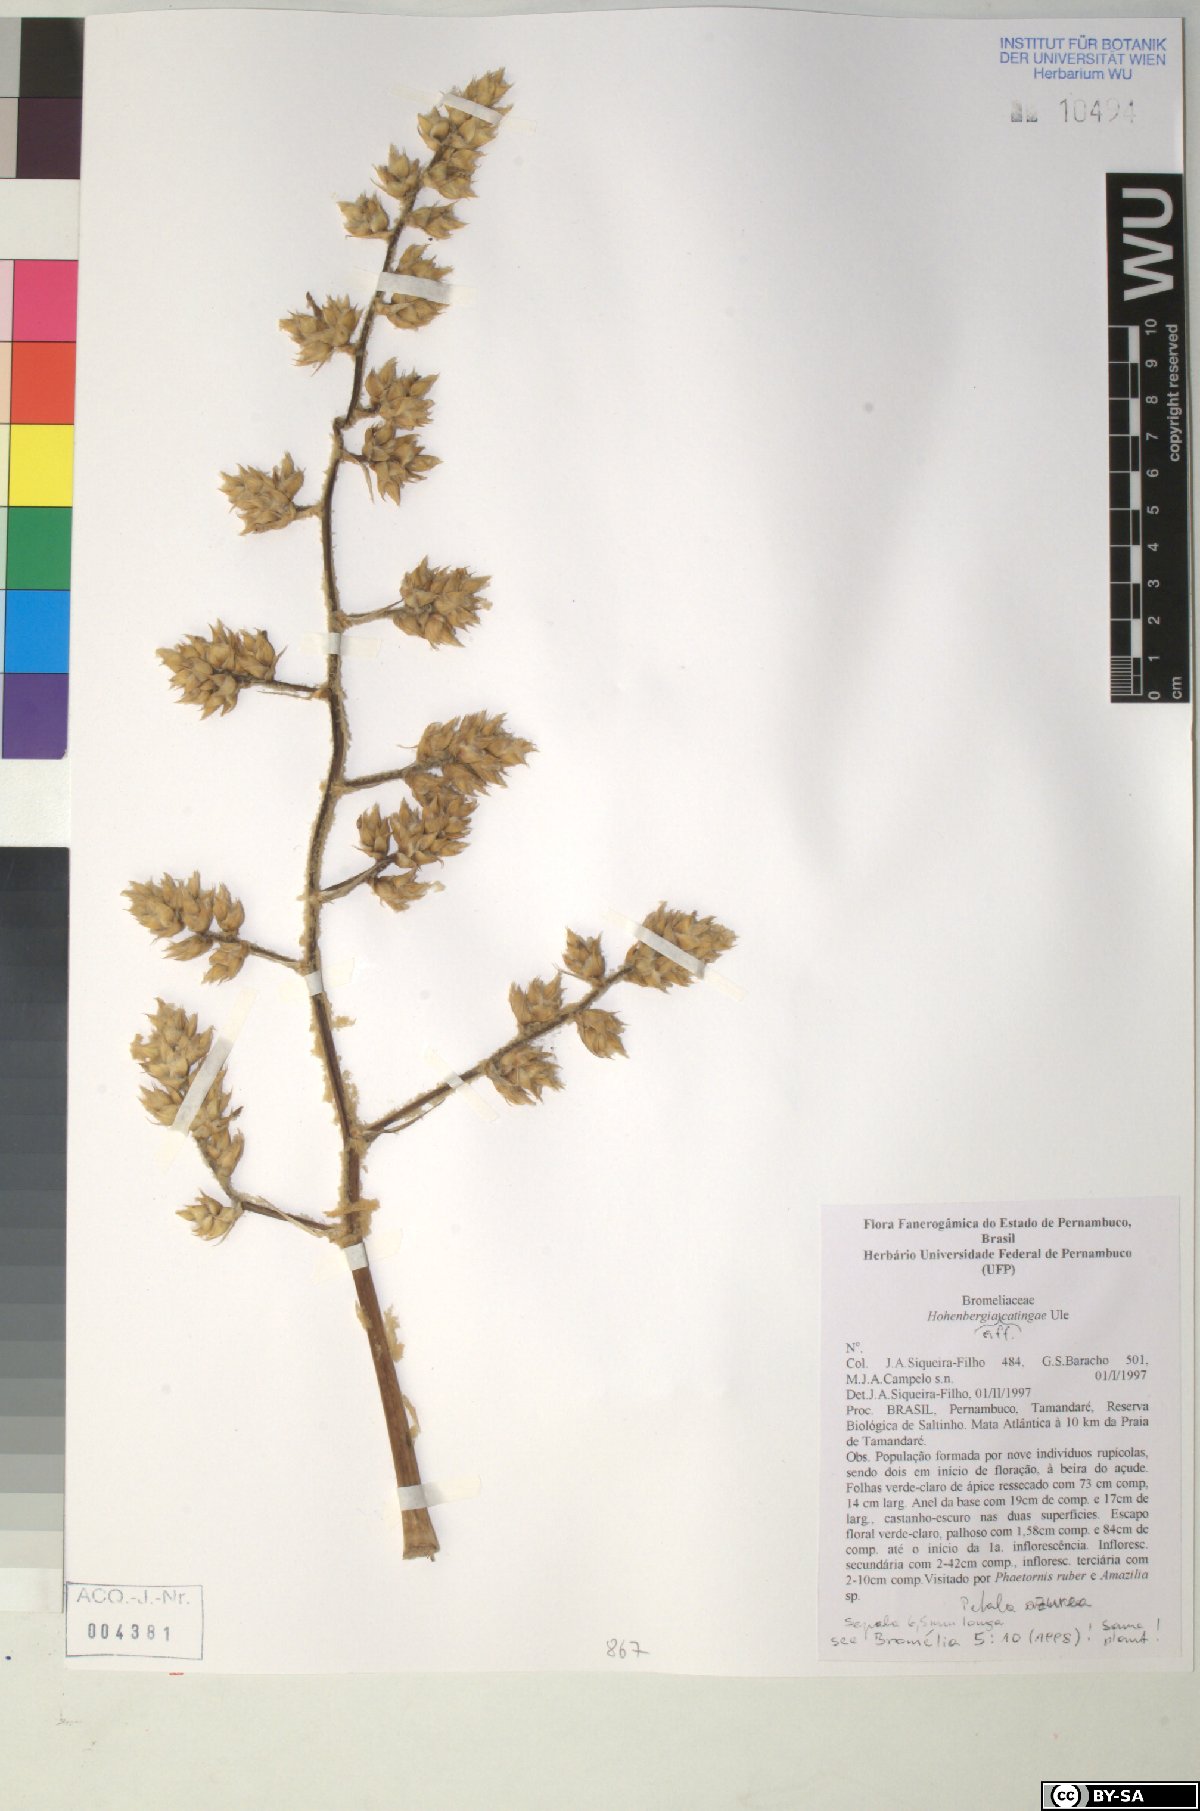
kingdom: Plantae
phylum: Tracheophyta
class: Liliopsida
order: Poales
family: Bromeliaceae
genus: Hohenbergia
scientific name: Hohenbergia catingae
